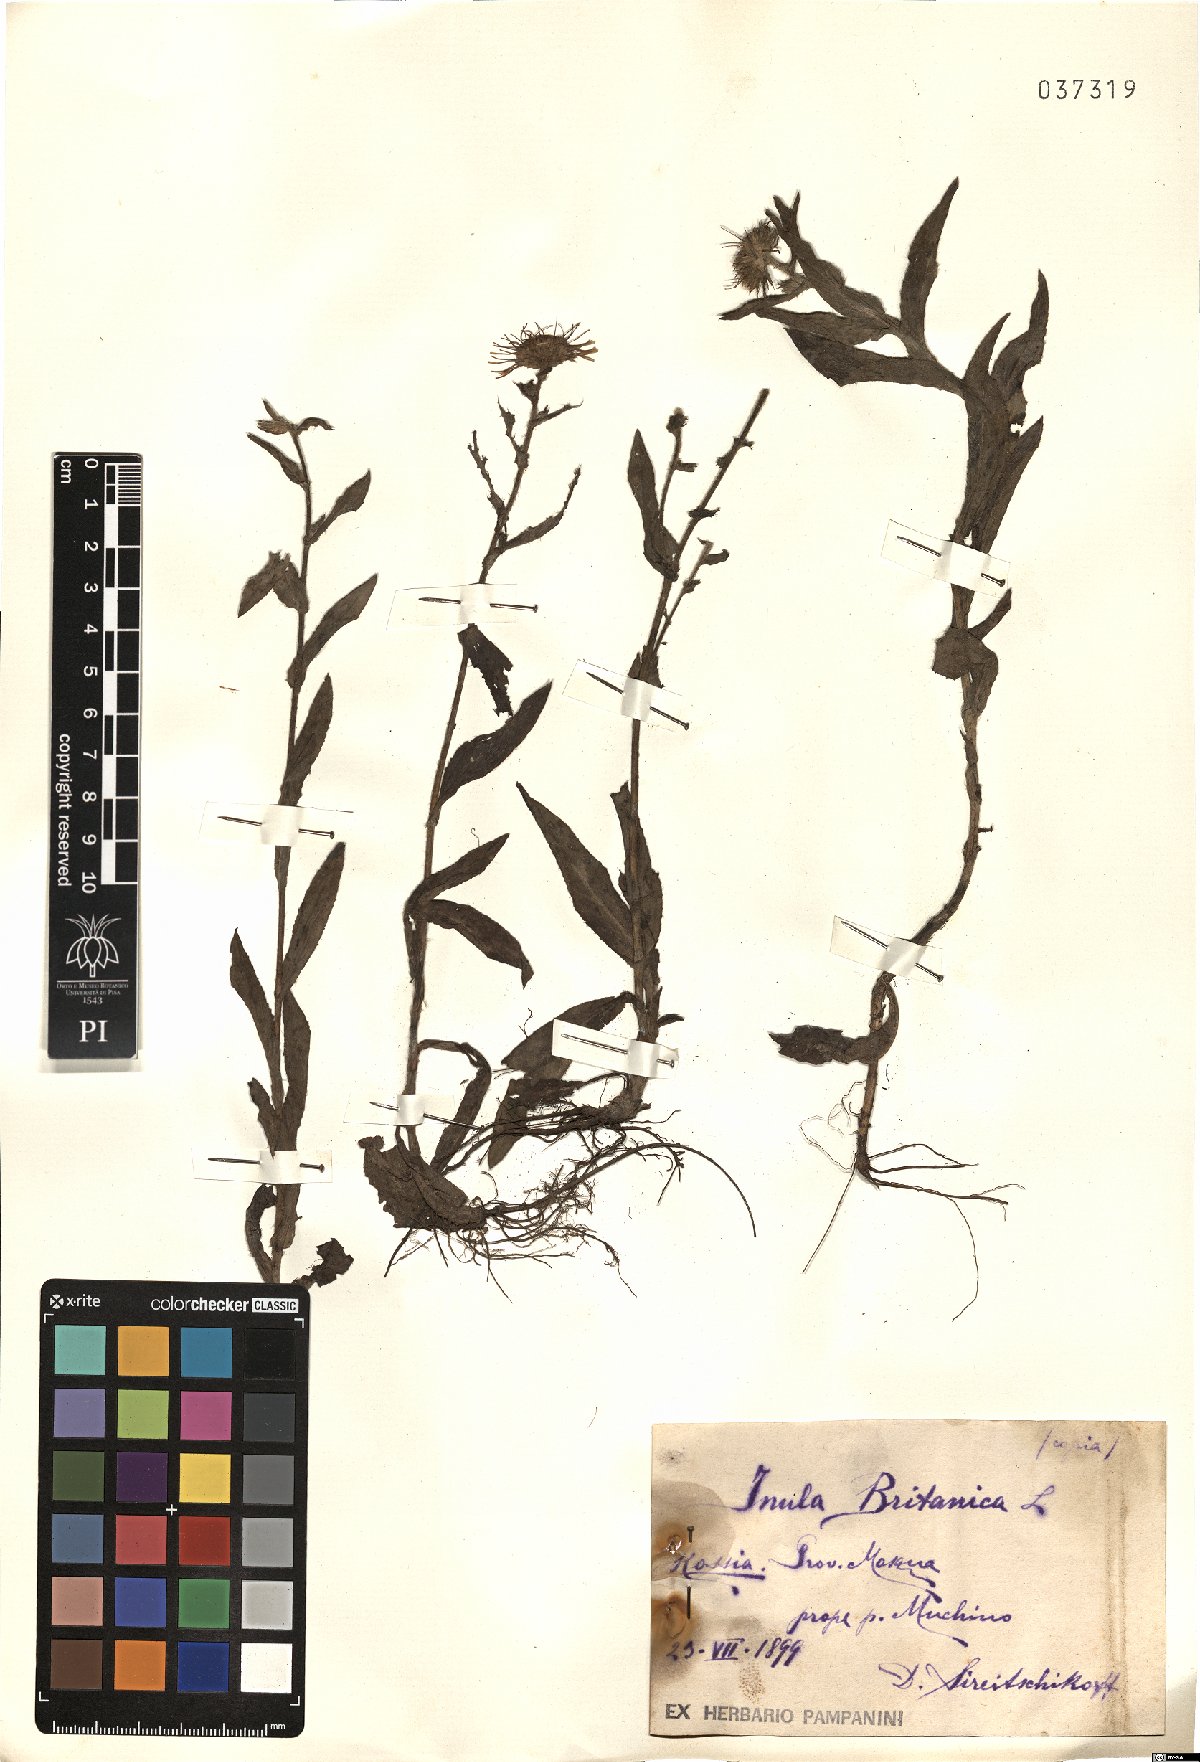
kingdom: Plantae
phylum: Tracheophyta
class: Magnoliopsida
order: Asterales
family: Asteraceae
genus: Pentanema
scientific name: Pentanema britannicum
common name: British elecampane
